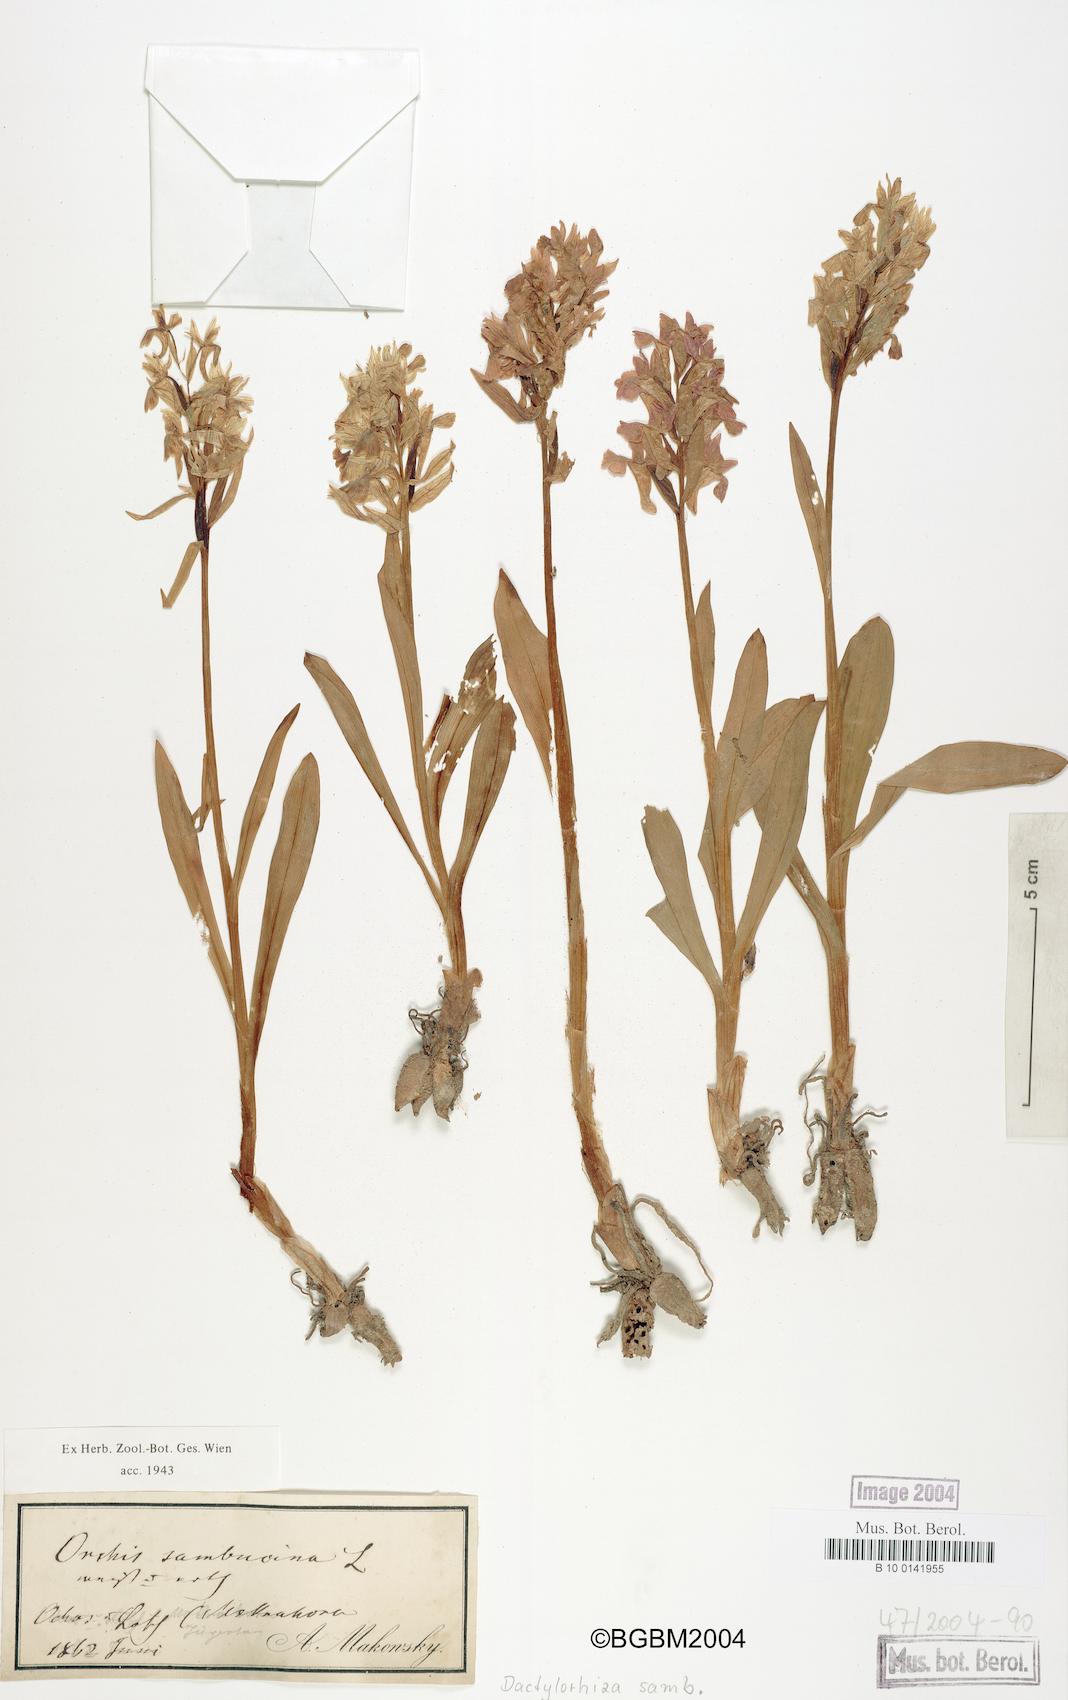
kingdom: Plantae
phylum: Tracheophyta
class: Liliopsida
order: Asparagales
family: Orchidaceae
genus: Dactylorhiza
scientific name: Dactylorhiza sambucina
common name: Elder-flowered orchid
